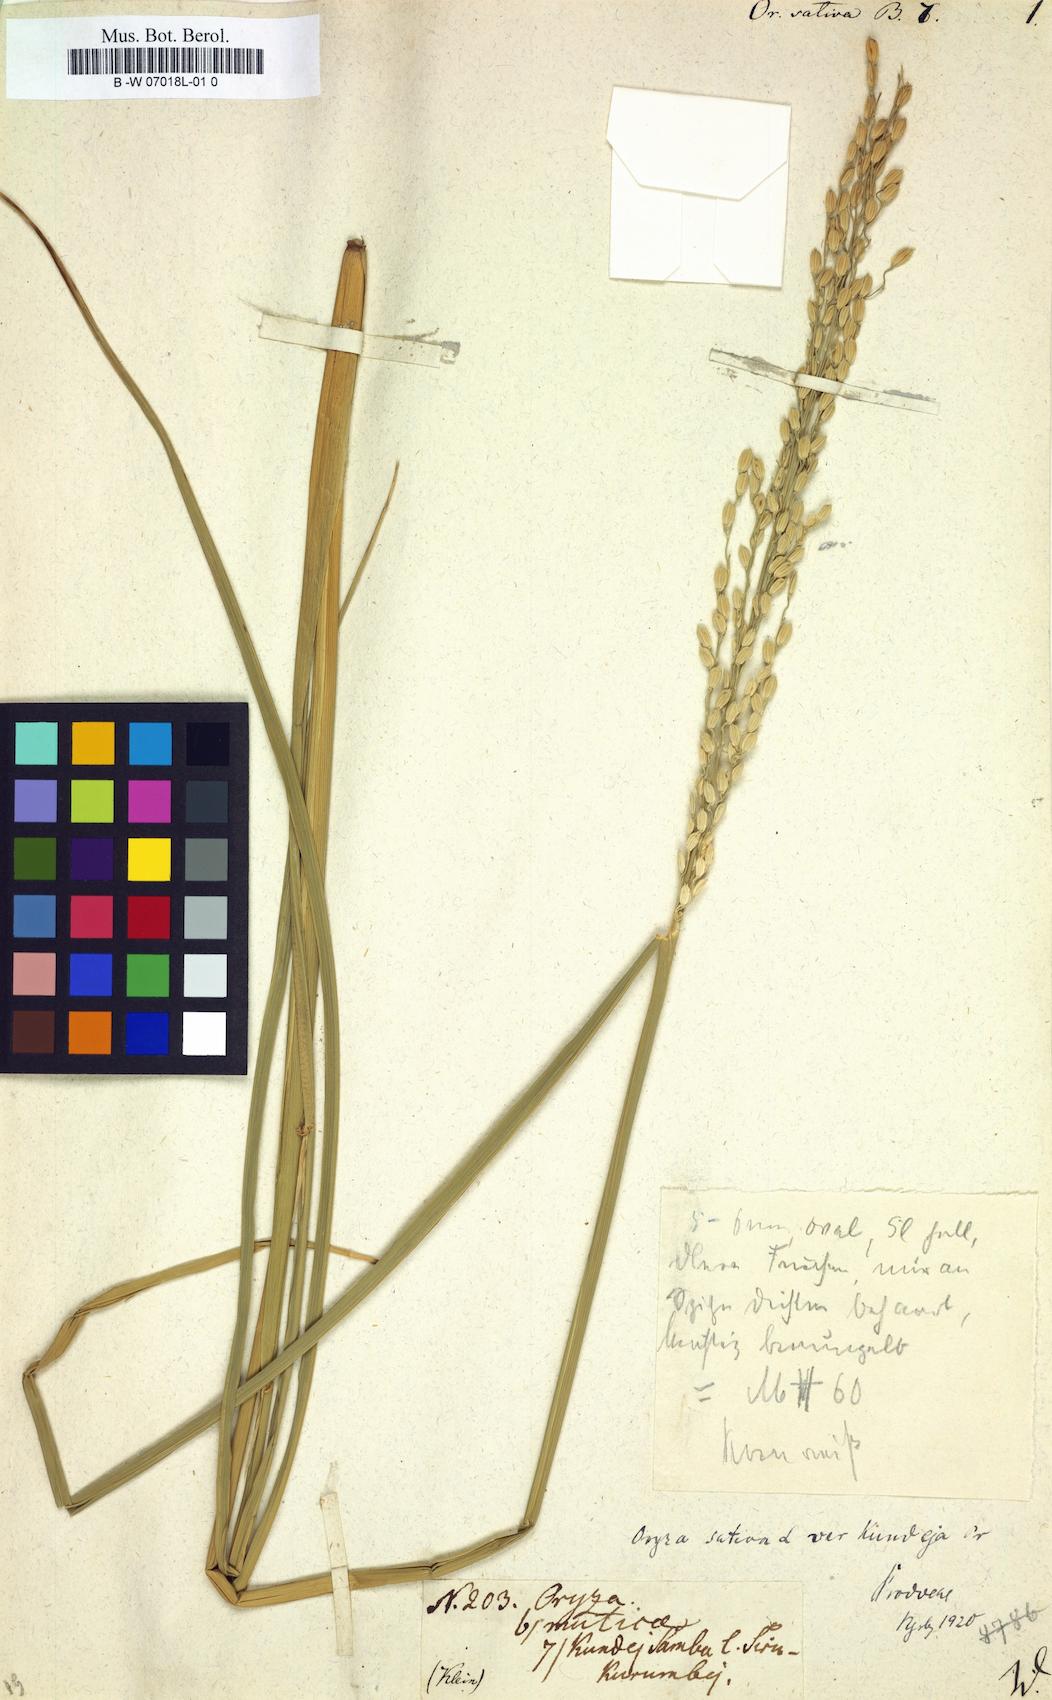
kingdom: Plantae
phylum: Tracheophyta
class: Liliopsida
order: Poales
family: Poaceae
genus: Oryza
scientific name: Oryza sativa
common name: Rice
